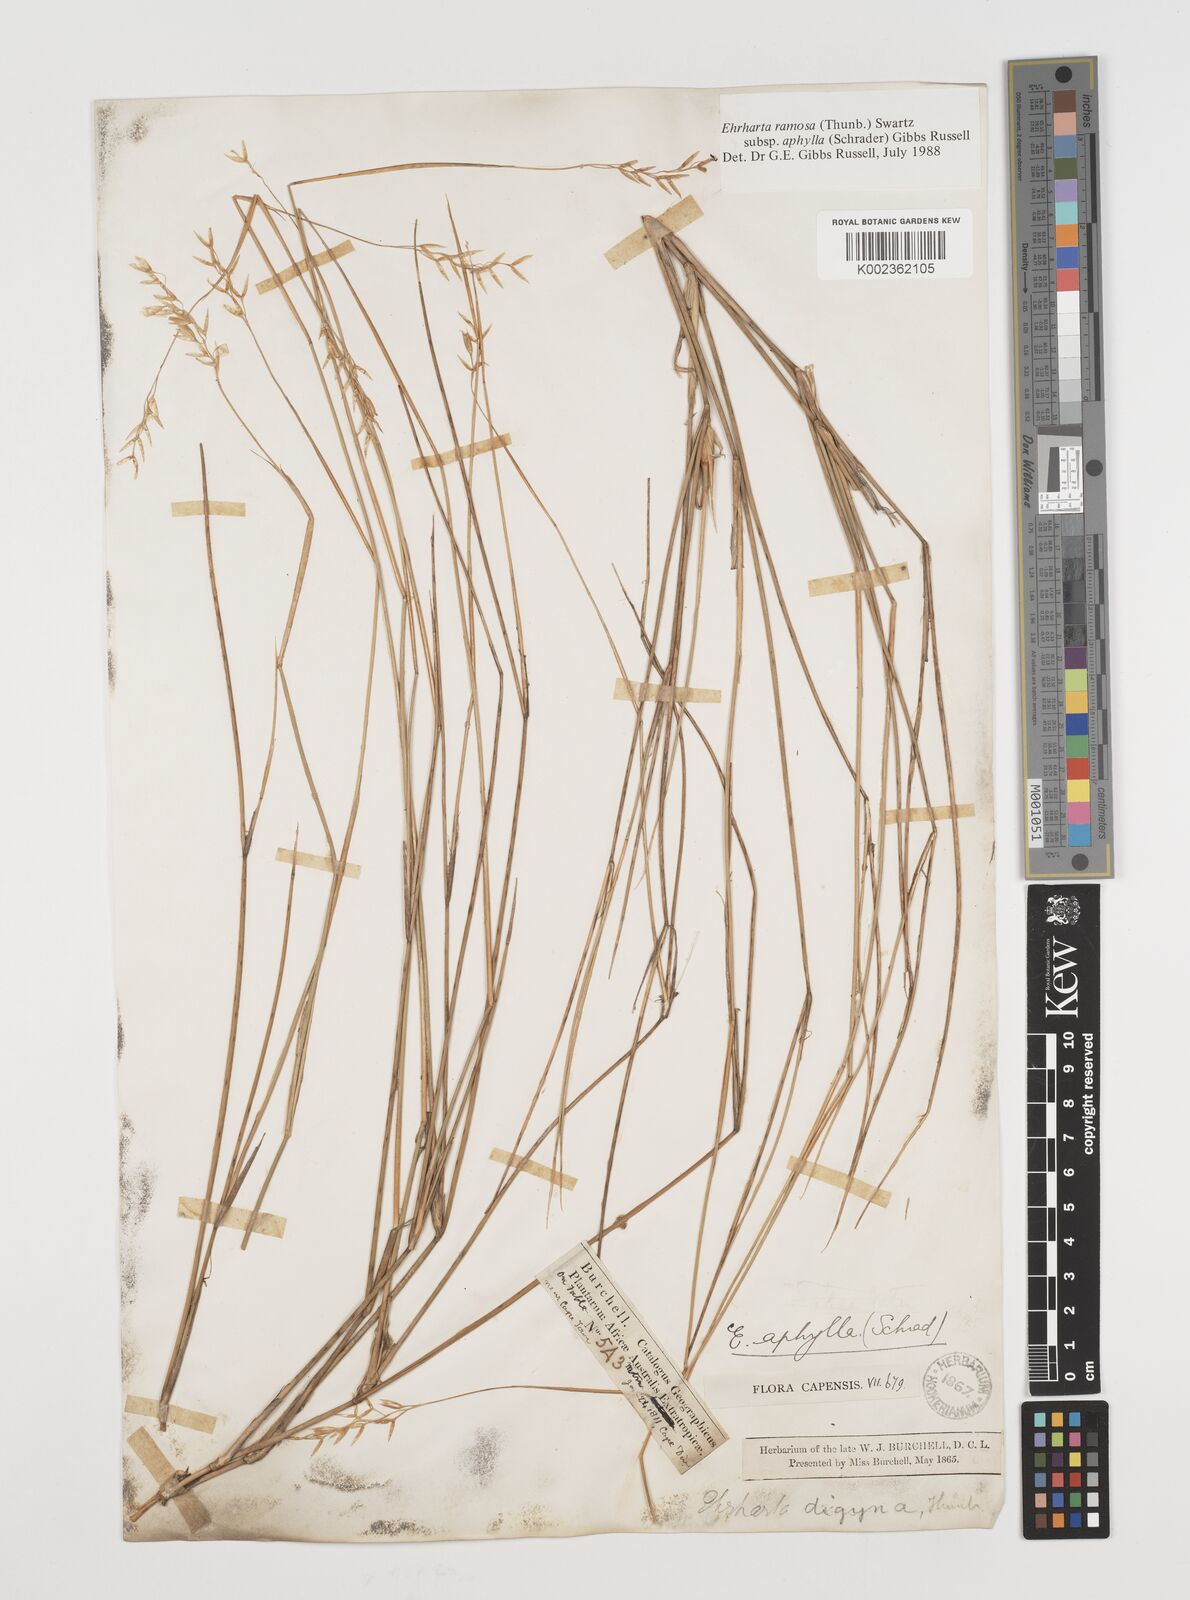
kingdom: Plantae
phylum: Tracheophyta
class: Liliopsida
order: Poales
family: Poaceae
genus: Ehrharta
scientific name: Ehrharta digyna
